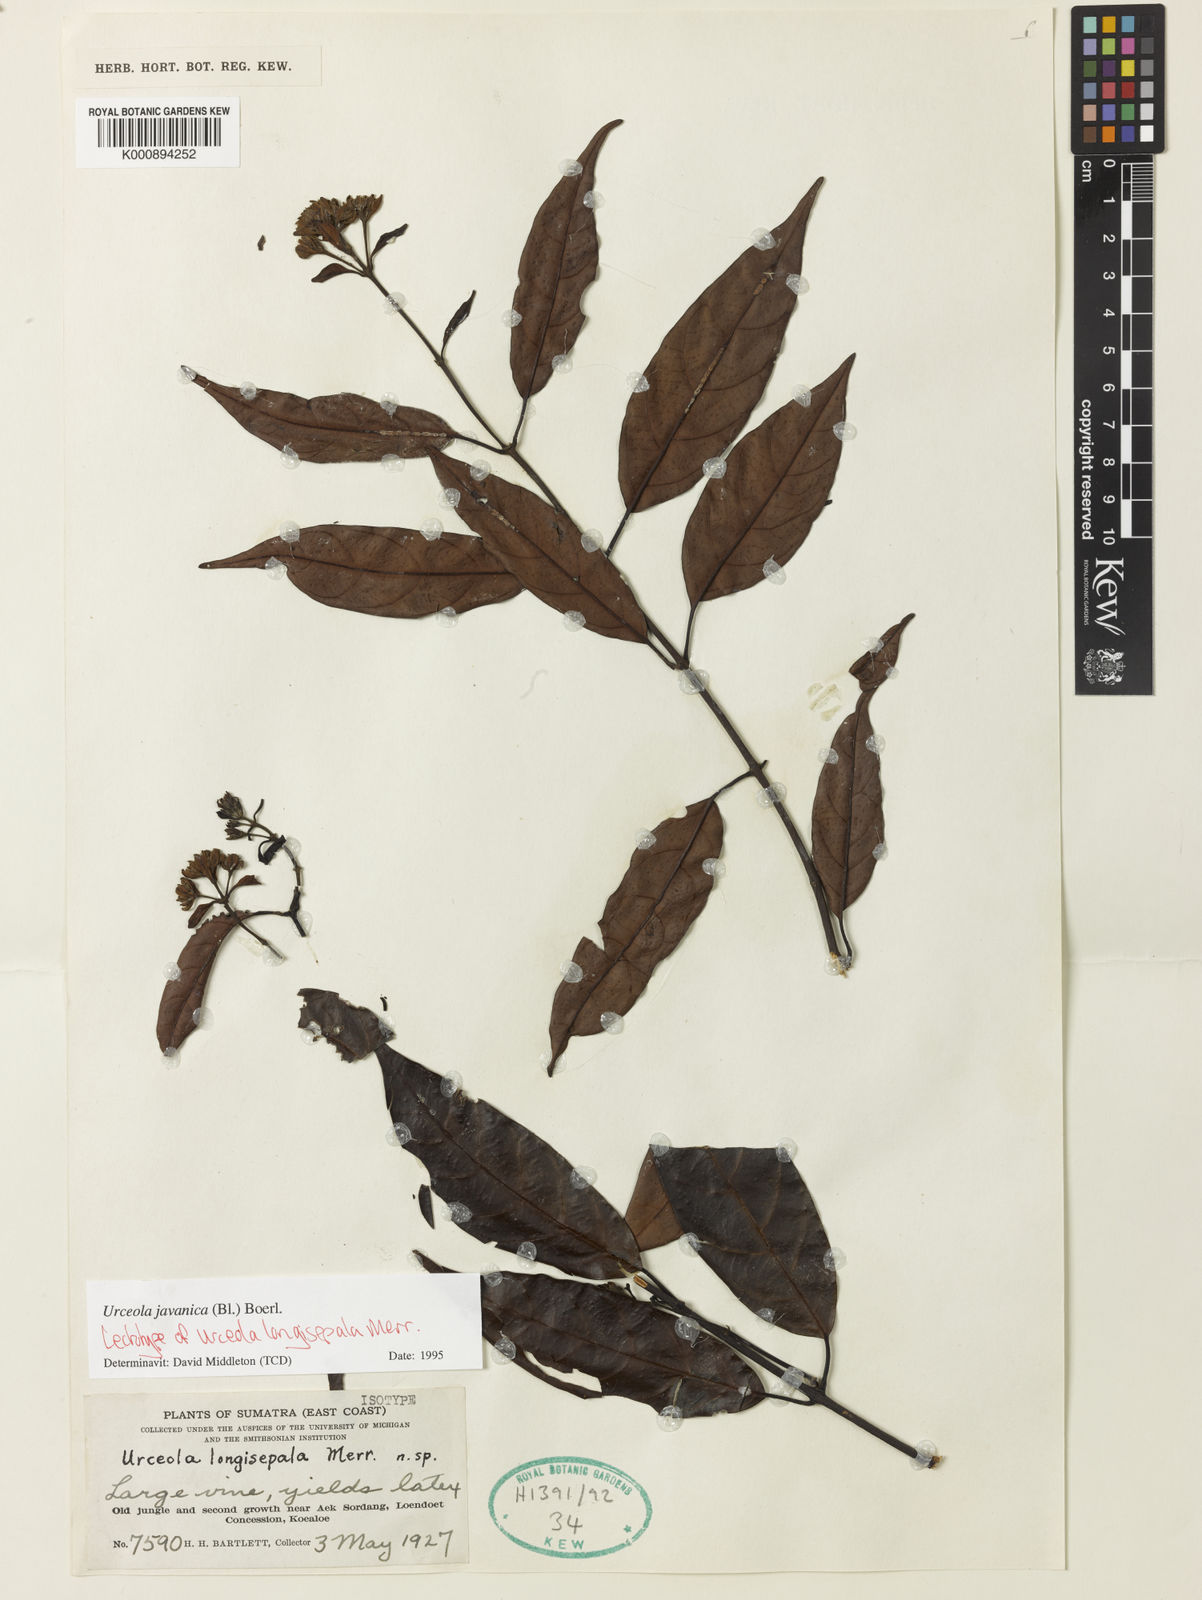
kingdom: Plantae
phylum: Tracheophyta
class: Magnoliopsida
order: Gentianales
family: Apocynaceae
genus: Urceola
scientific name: Urceola javanica
